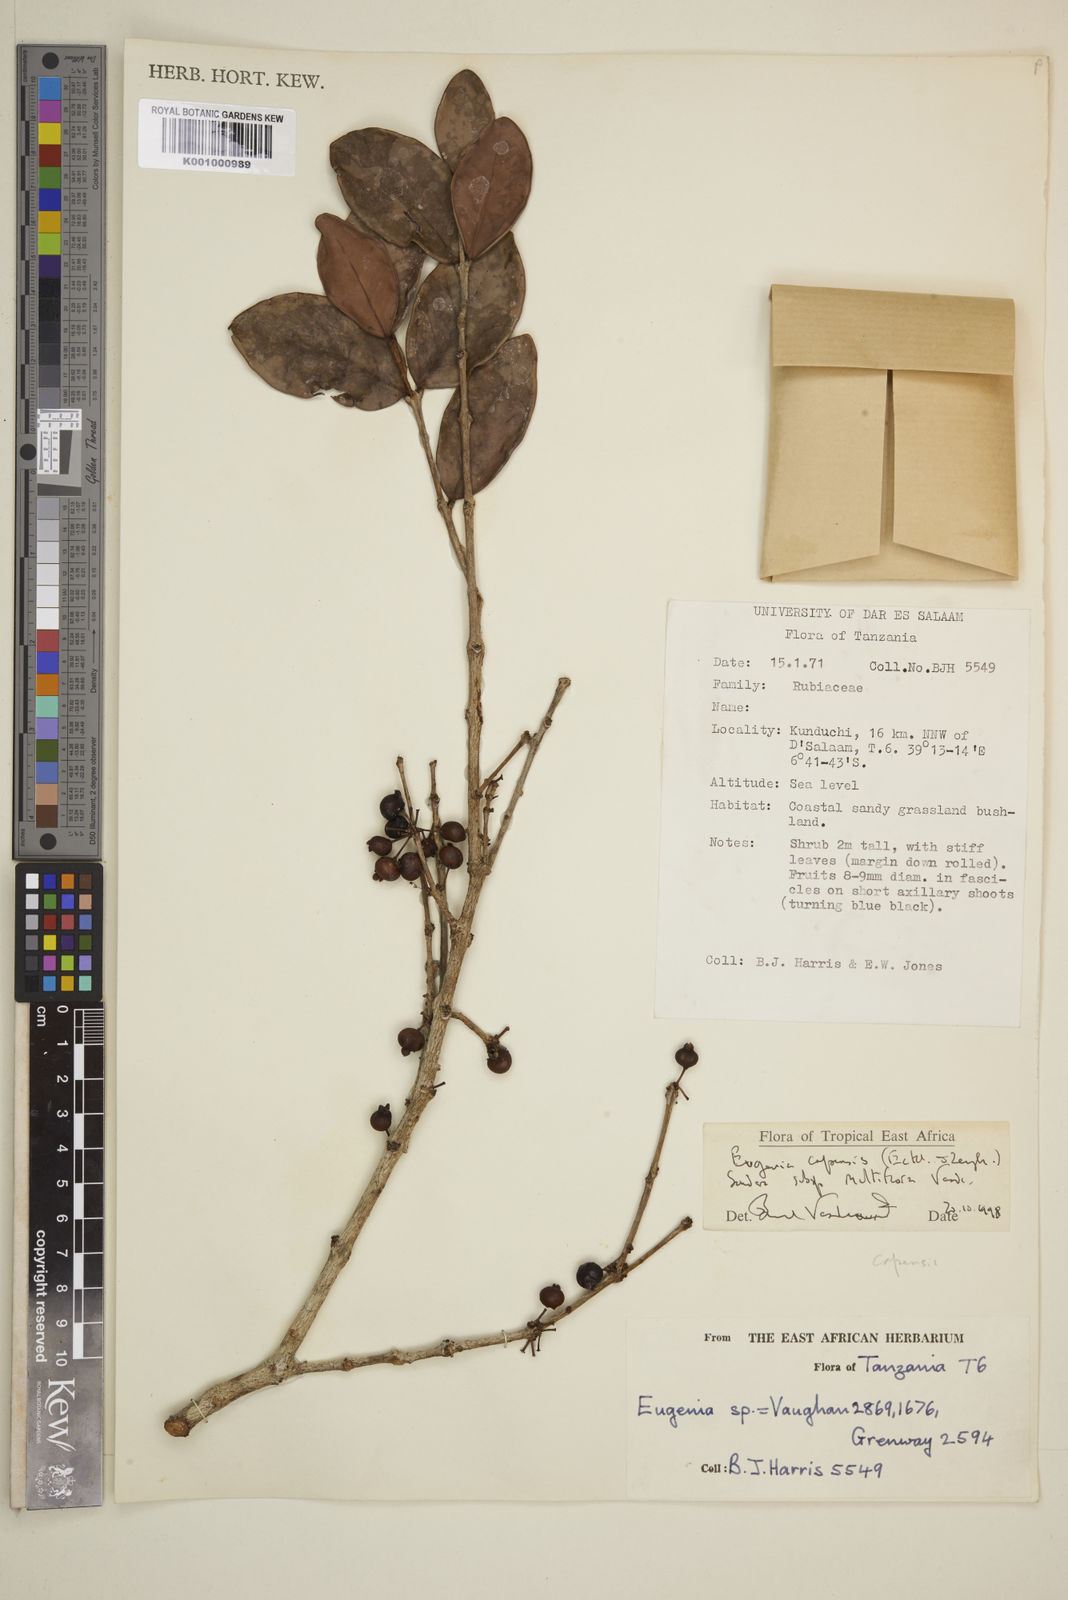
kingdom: Plantae
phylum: Tracheophyta
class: Magnoliopsida
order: Myrtales
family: Myrtaceae
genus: Eugenia
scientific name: Eugenia capensis
